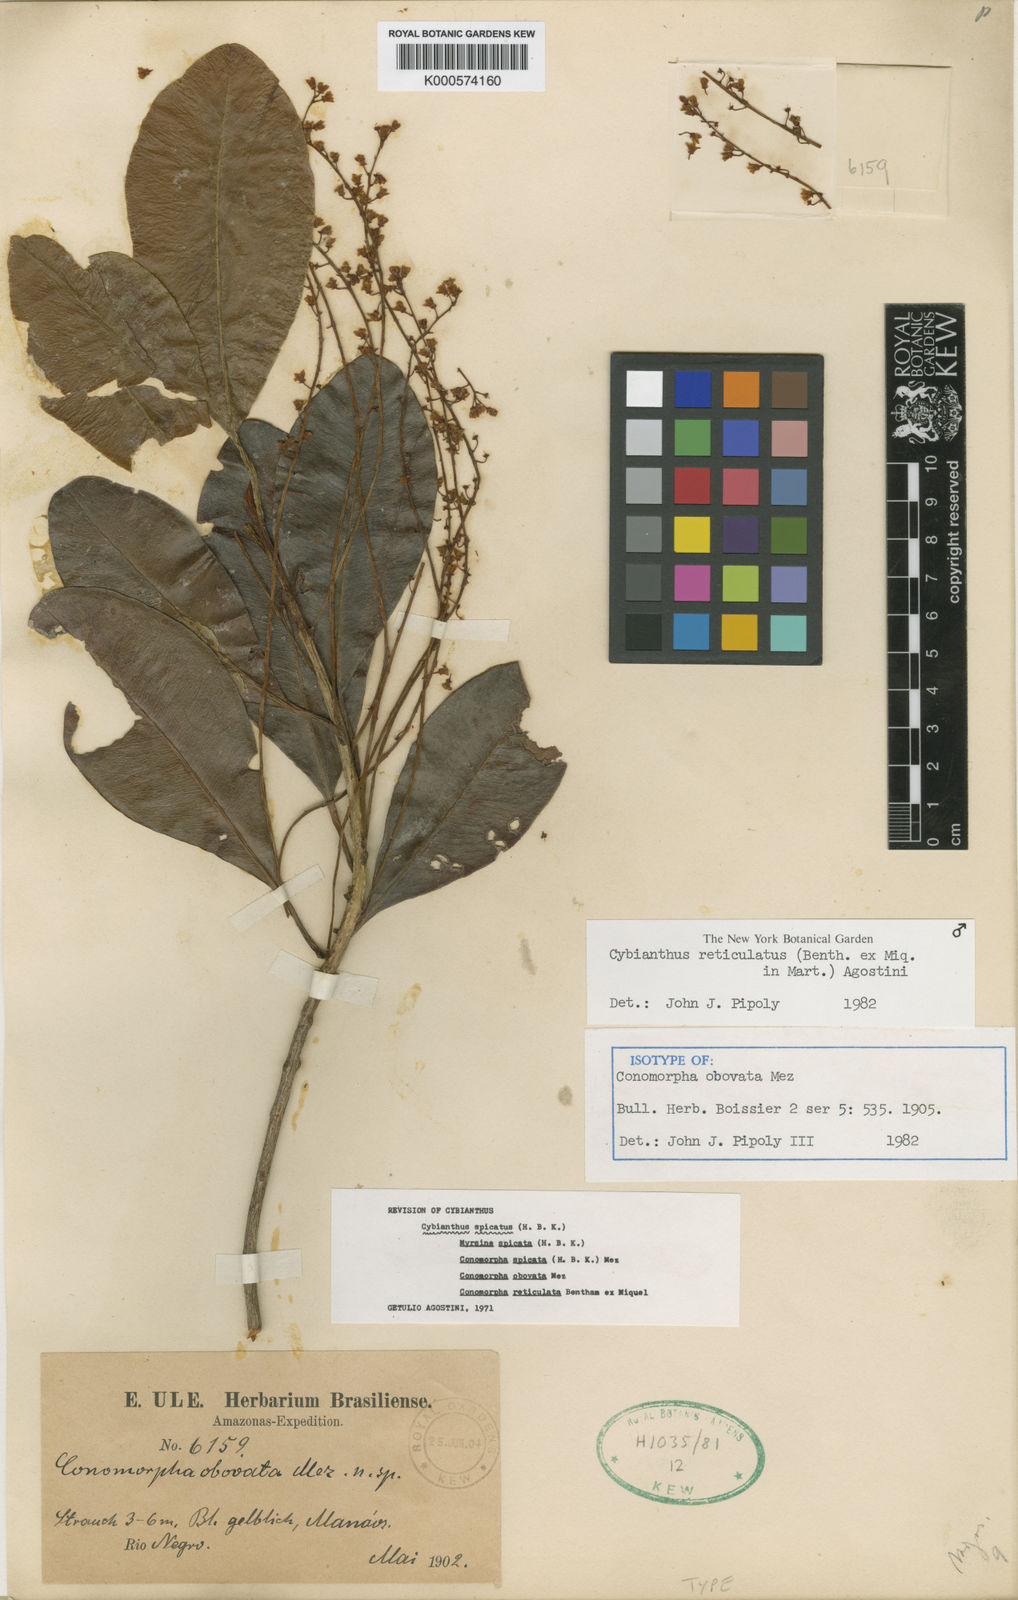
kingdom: Plantae
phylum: Tracheophyta
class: Magnoliopsida
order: Ericales
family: Primulaceae
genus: Cybianthus
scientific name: Cybianthus reticulatus
